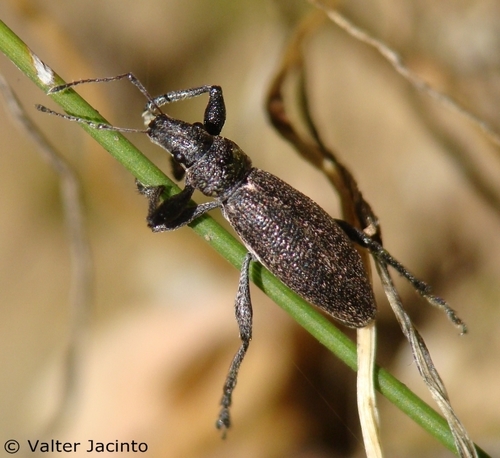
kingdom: Animalia
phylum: Arthropoda
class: Insecta
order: Coleoptera
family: Curculionidae
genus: Brachyderes
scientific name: Brachyderes lusitanicus
